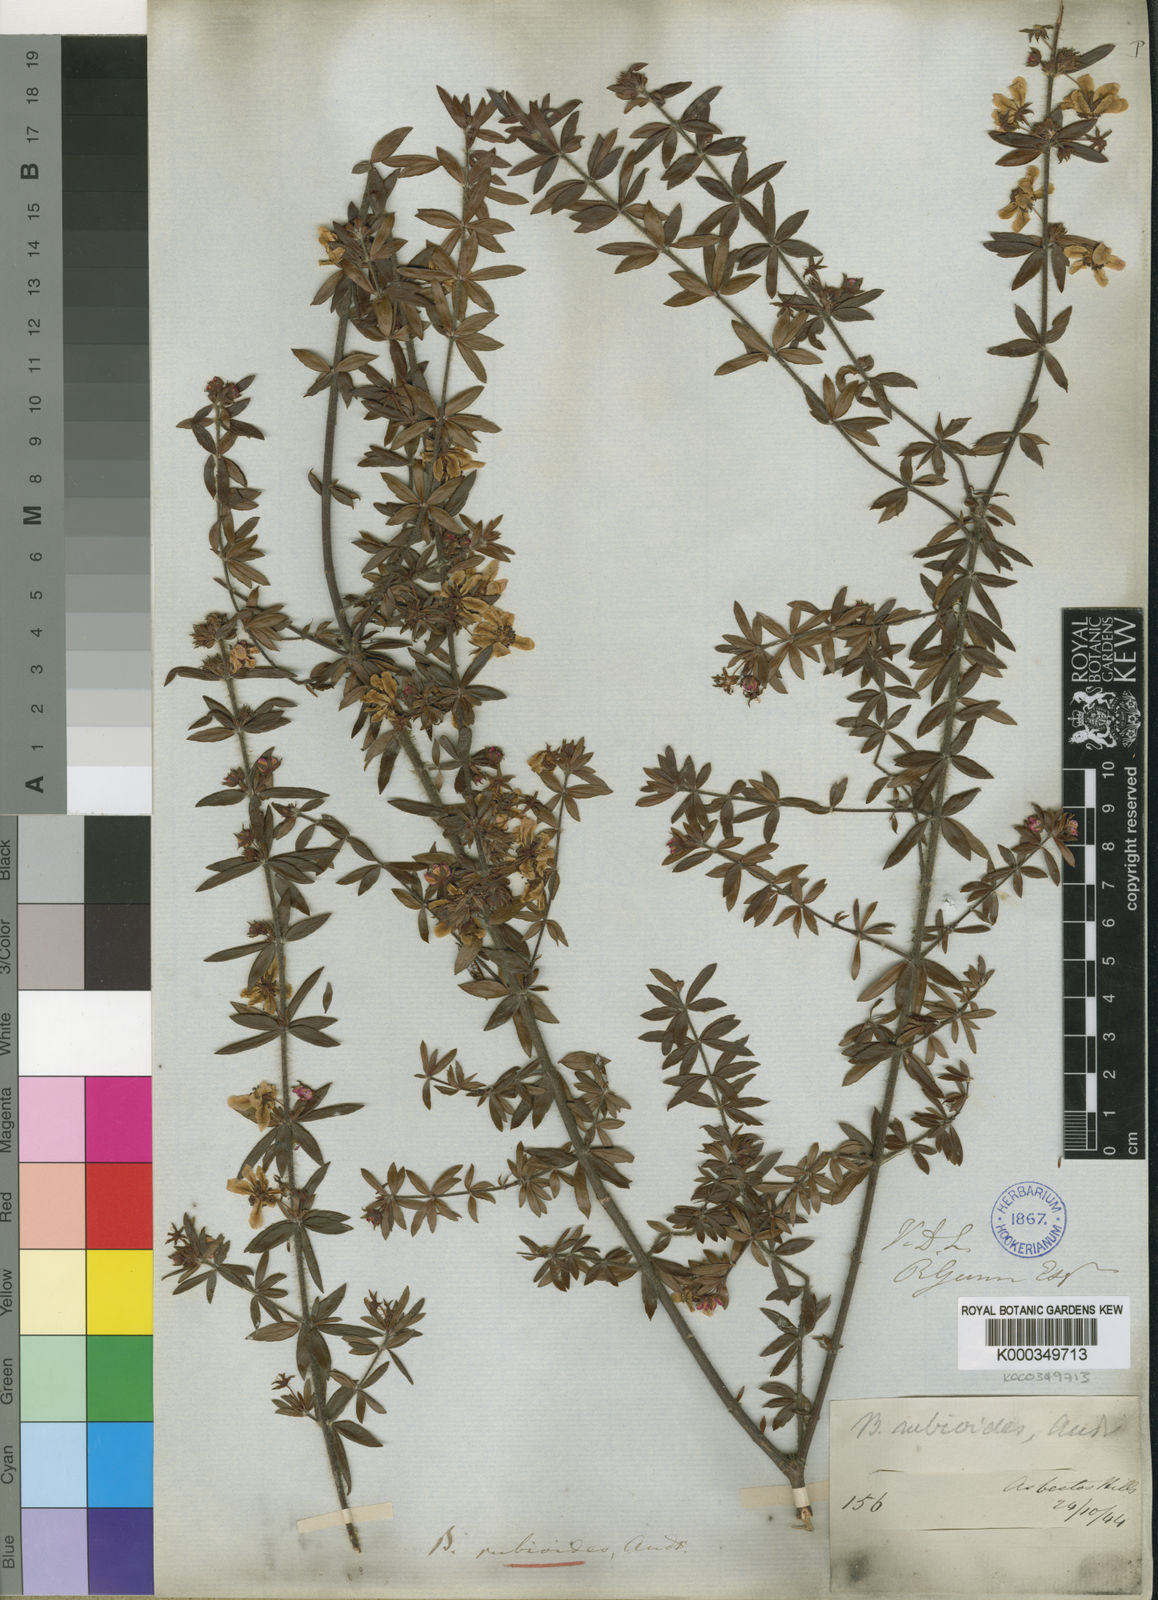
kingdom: Plantae
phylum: Tracheophyta
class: Magnoliopsida
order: Oxalidales
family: Cunoniaceae
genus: Bauera
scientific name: Bauera rubioides
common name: River-rose
